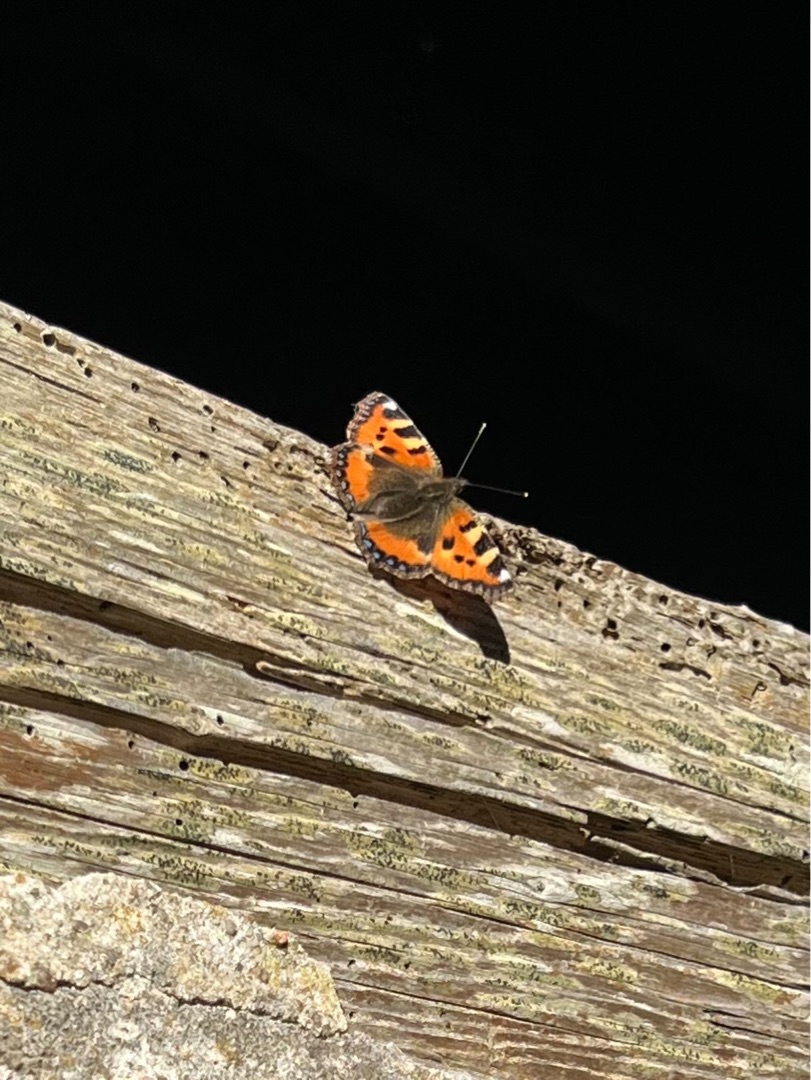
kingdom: Animalia
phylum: Arthropoda
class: Insecta
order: Lepidoptera
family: Nymphalidae
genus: Aglais
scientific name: Aglais urticae
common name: Nældens takvinge
